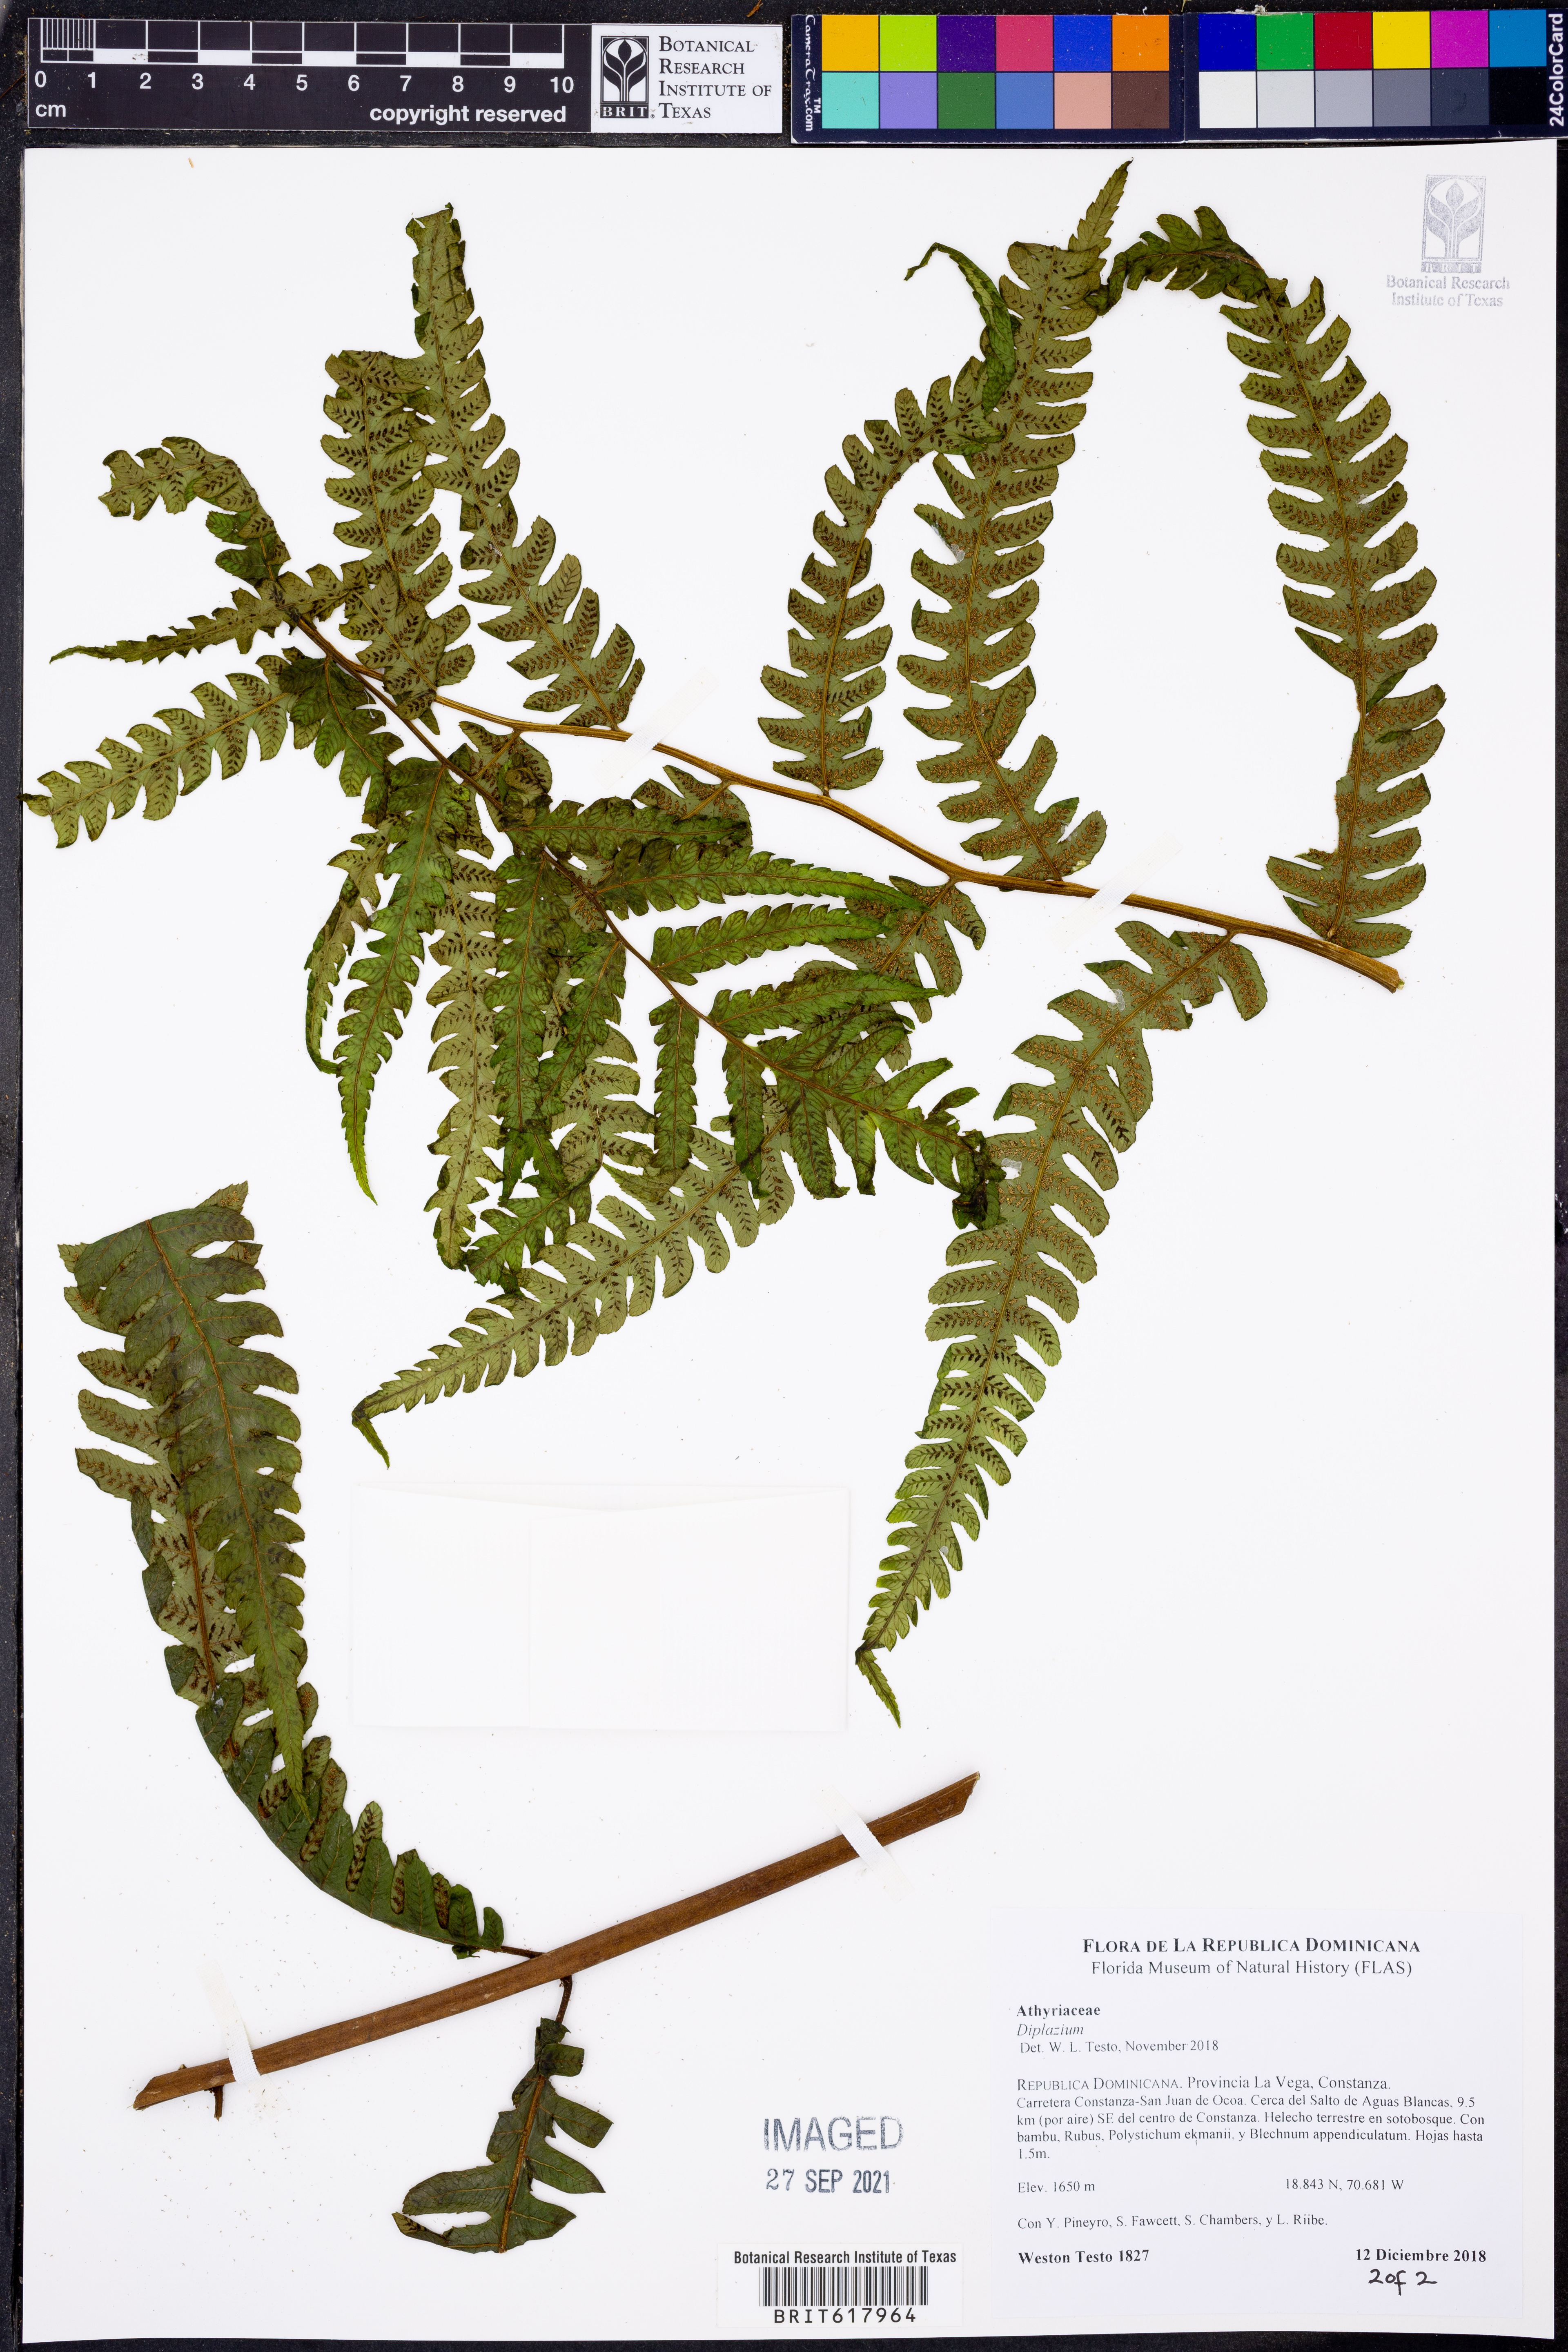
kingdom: Plantae
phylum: Tracheophyta
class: Polypodiopsida
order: Polypodiales
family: Athyriaceae
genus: Diplazium
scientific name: Diplazium
